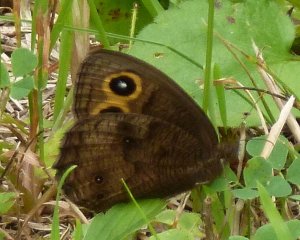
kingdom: Animalia
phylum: Arthropoda
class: Insecta
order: Lepidoptera
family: Nymphalidae
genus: Cercyonis
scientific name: Cercyonis pegala
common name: Common Wood-Nymph
